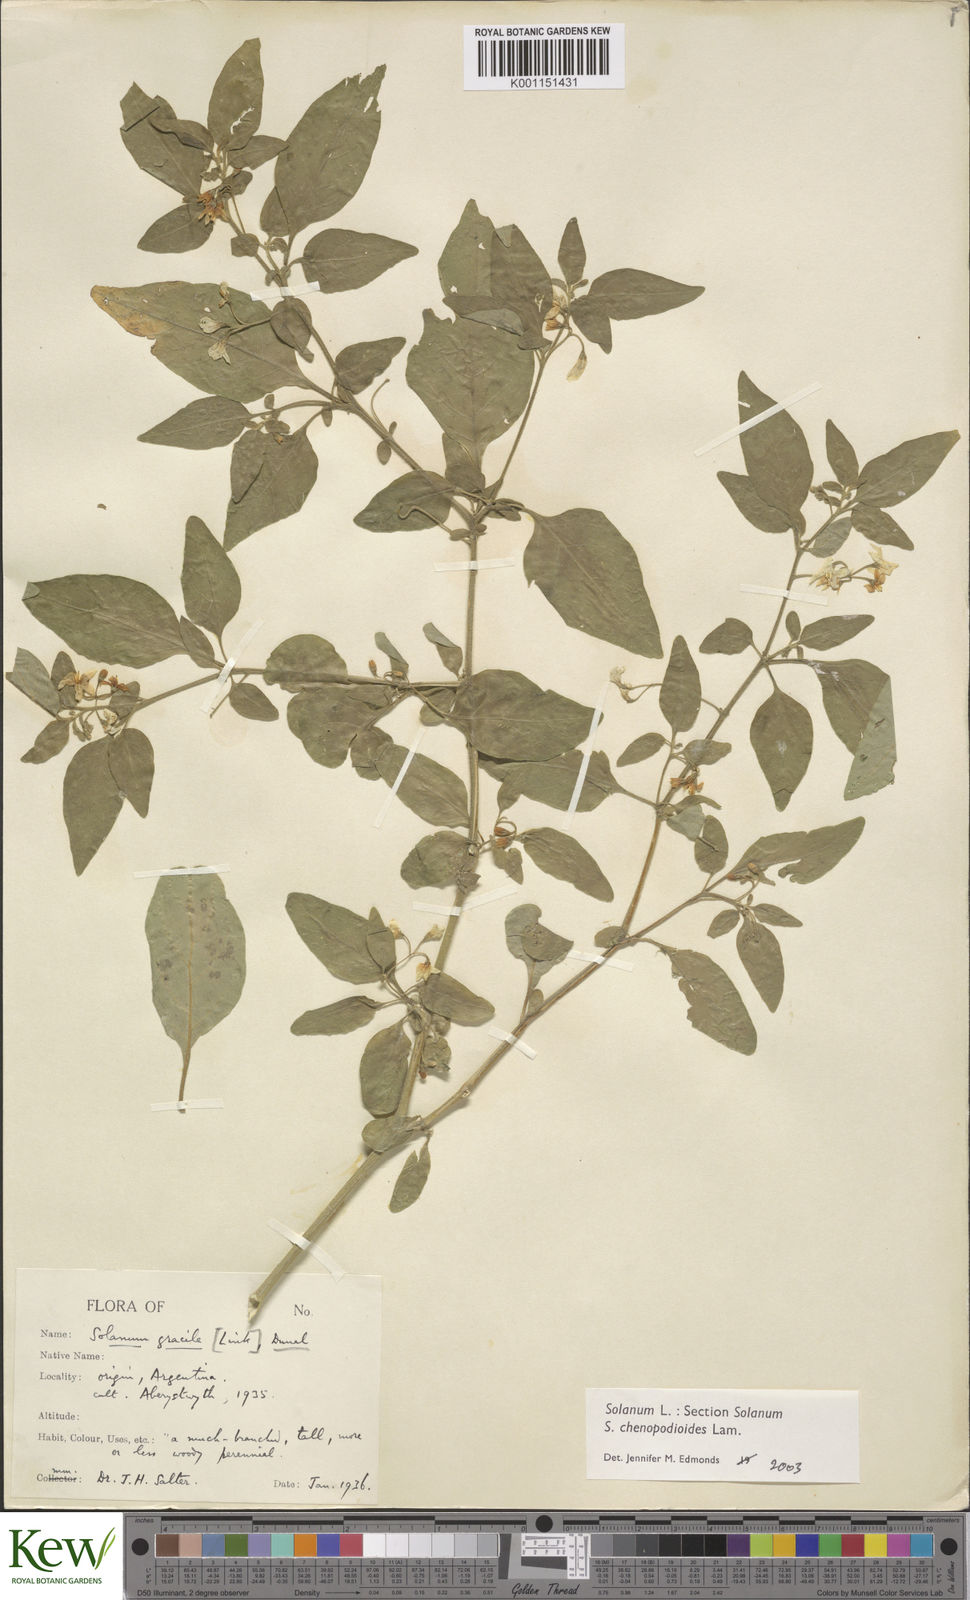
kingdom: Plantae
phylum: Tracheophyta
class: Magnoliopsida
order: Solanales
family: Solanaceae
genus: Solanum
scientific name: Solanum chenopodioides
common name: Tall nightshade
